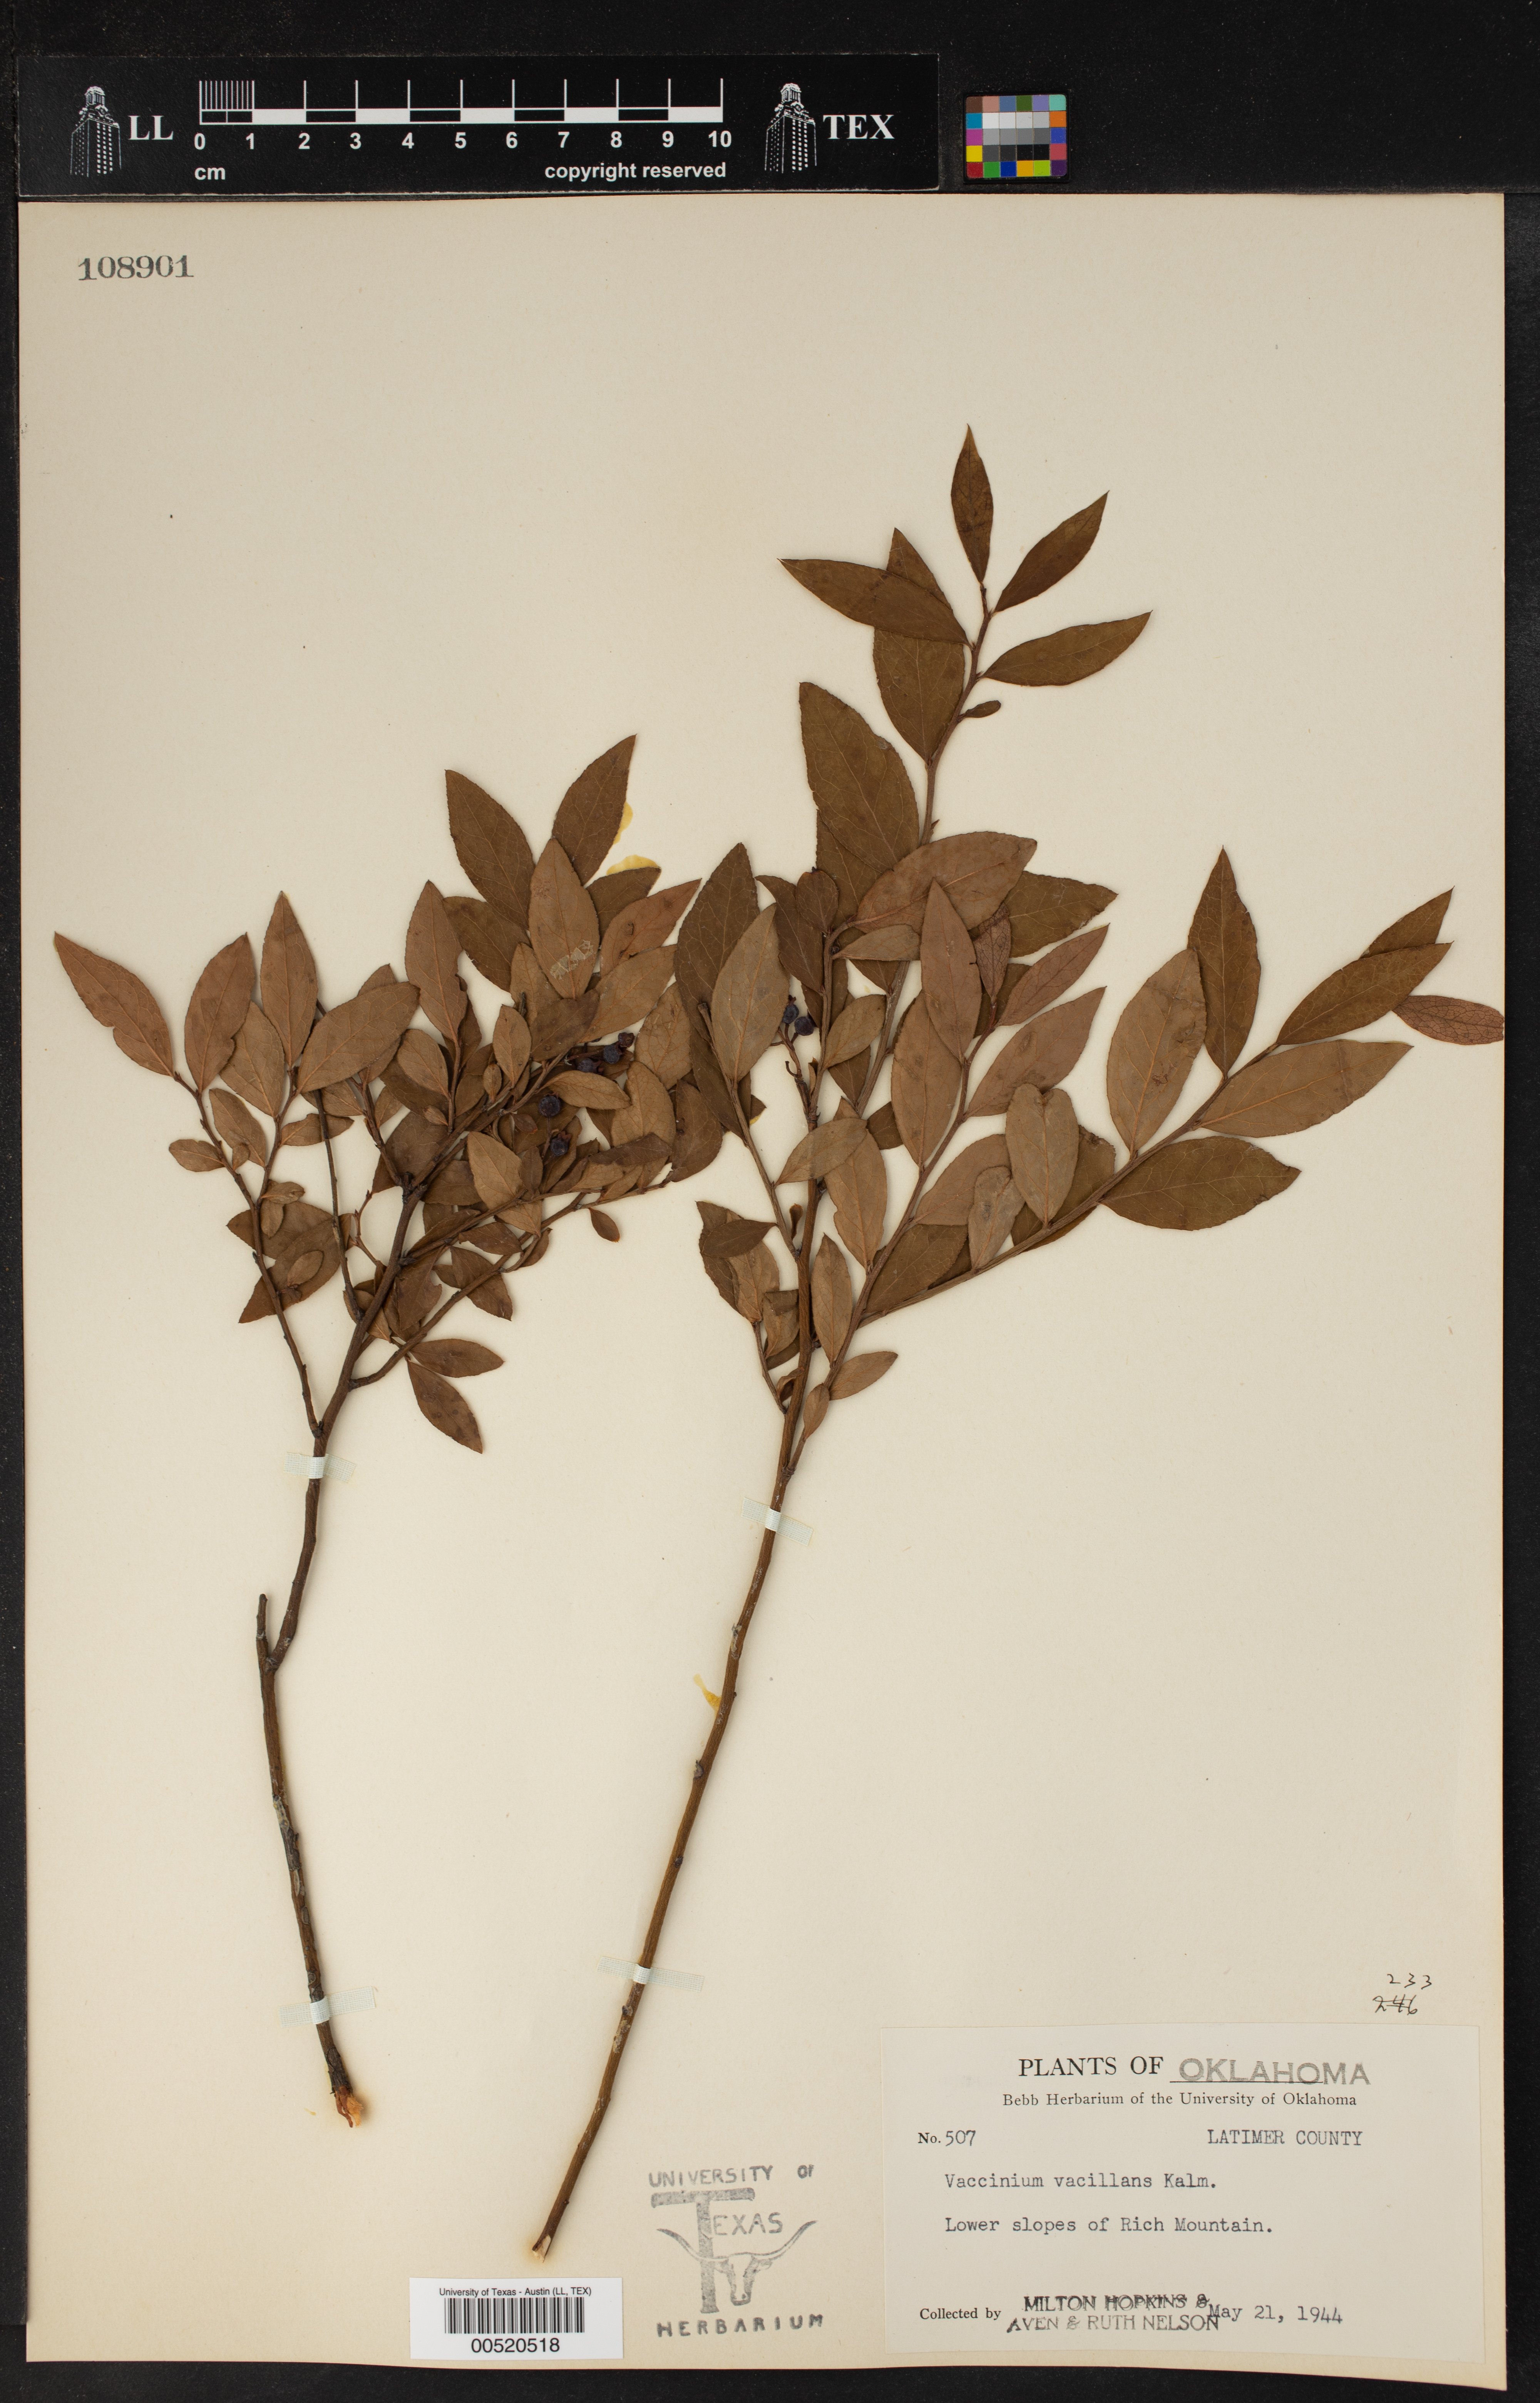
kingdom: Plantae
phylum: Tracheophyta
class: Magnoliopsida
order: Ericales
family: Ericaceae
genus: Vaccinium
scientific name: Vaccinium vacillans
